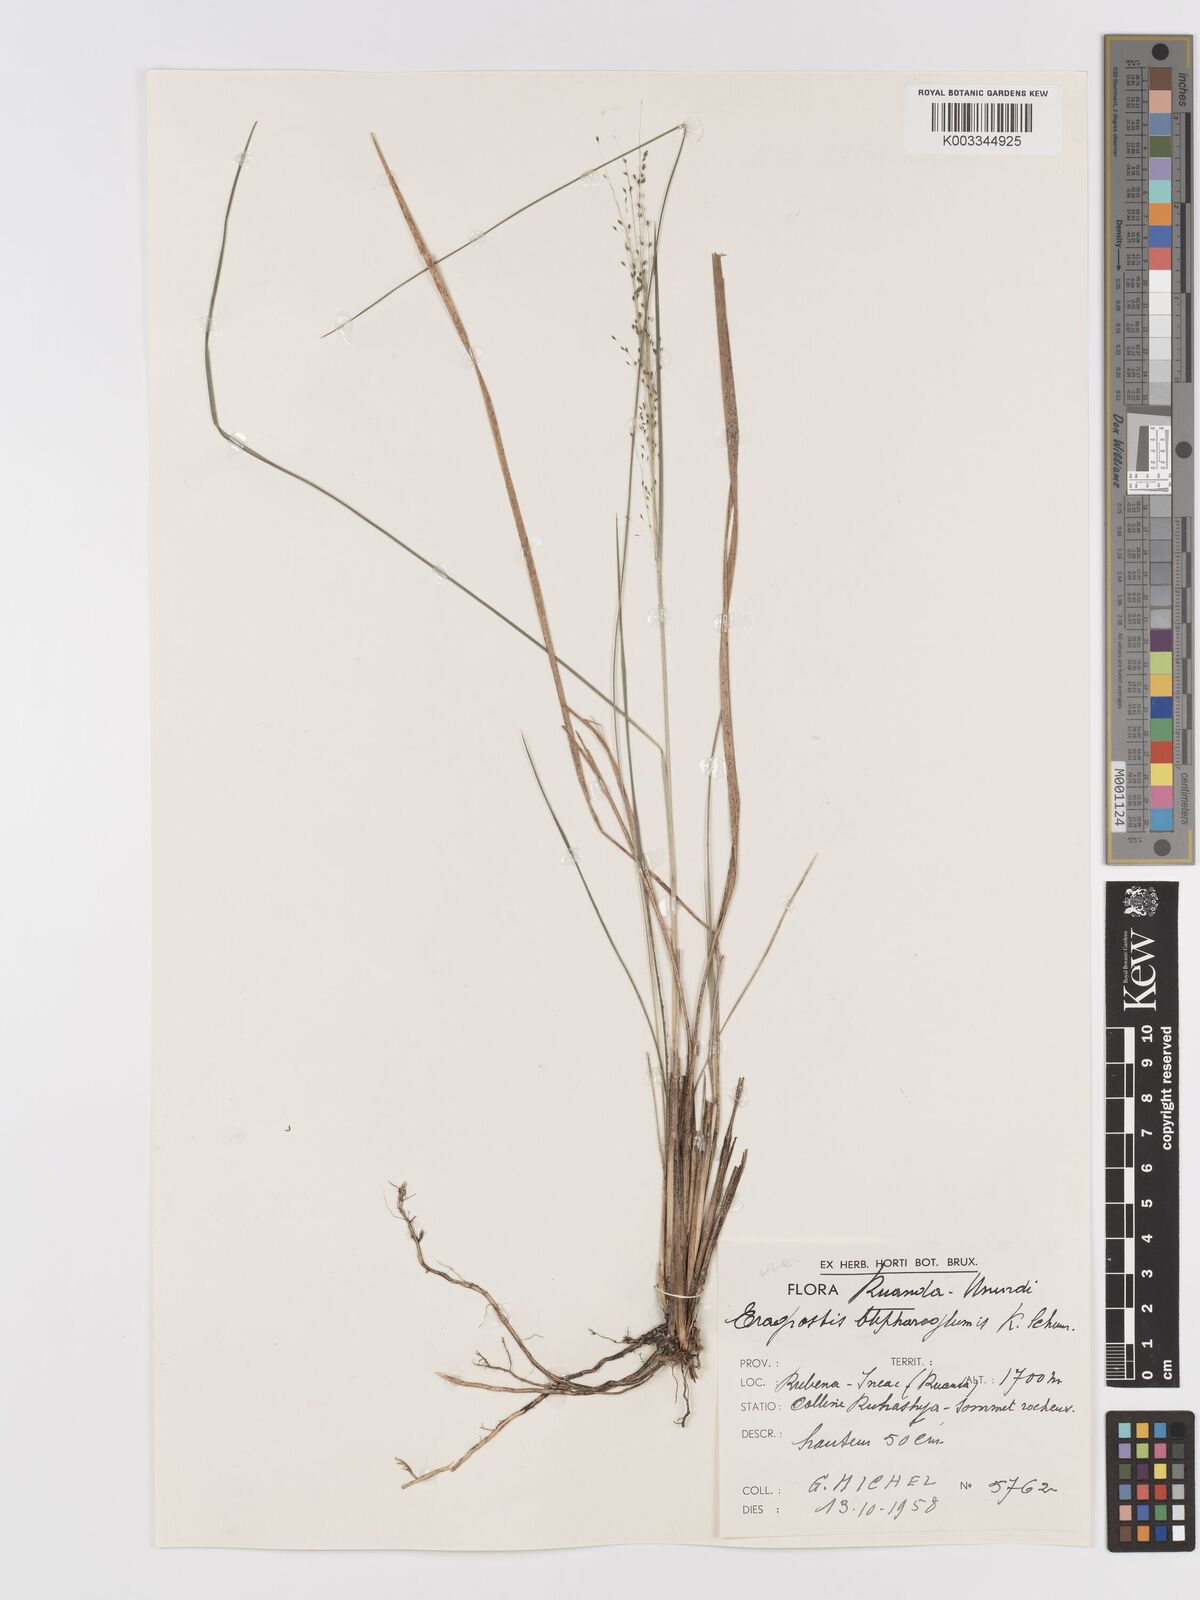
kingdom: Plantae
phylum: Tracheophyta
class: Liliopsida
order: Poales
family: Poaceae
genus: Eragrostis
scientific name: Eragrostis olivacea
